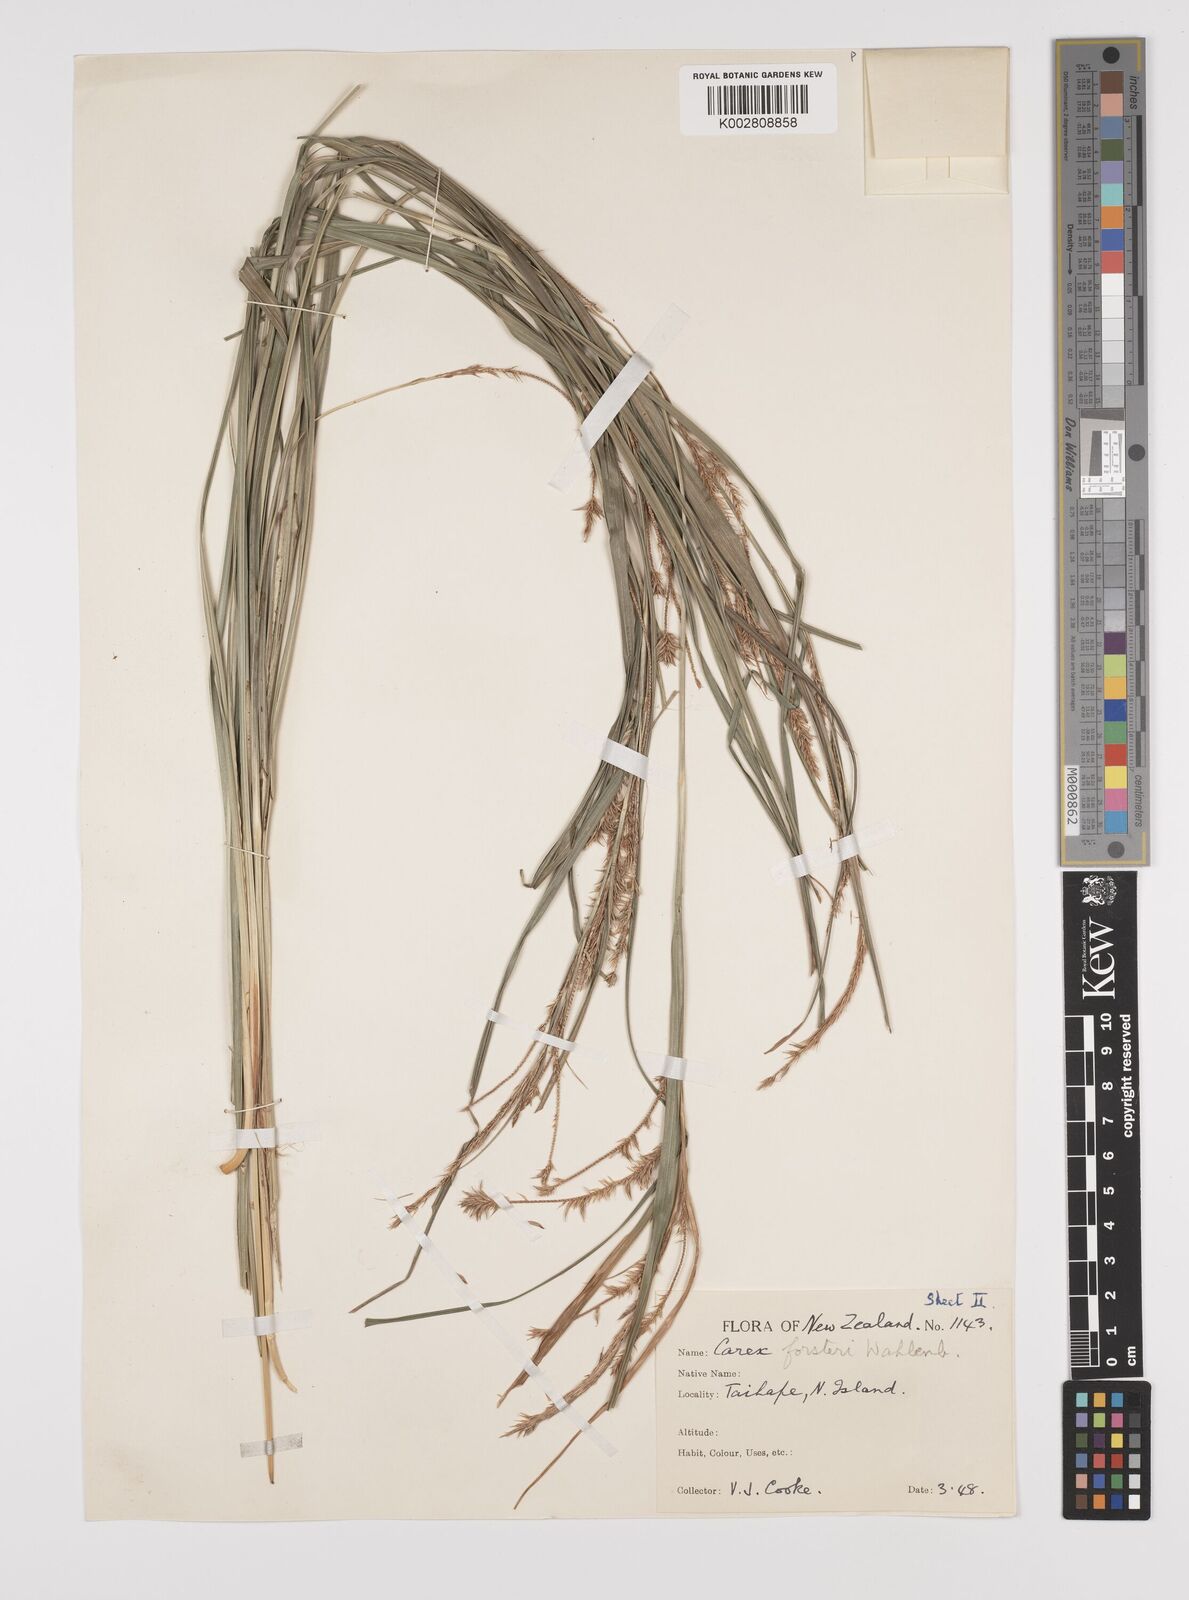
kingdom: Plantae
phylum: Tracheophyta
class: Liliopsida
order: Poales
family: Cyperaceae
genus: Carex
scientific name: Carex forsteri
